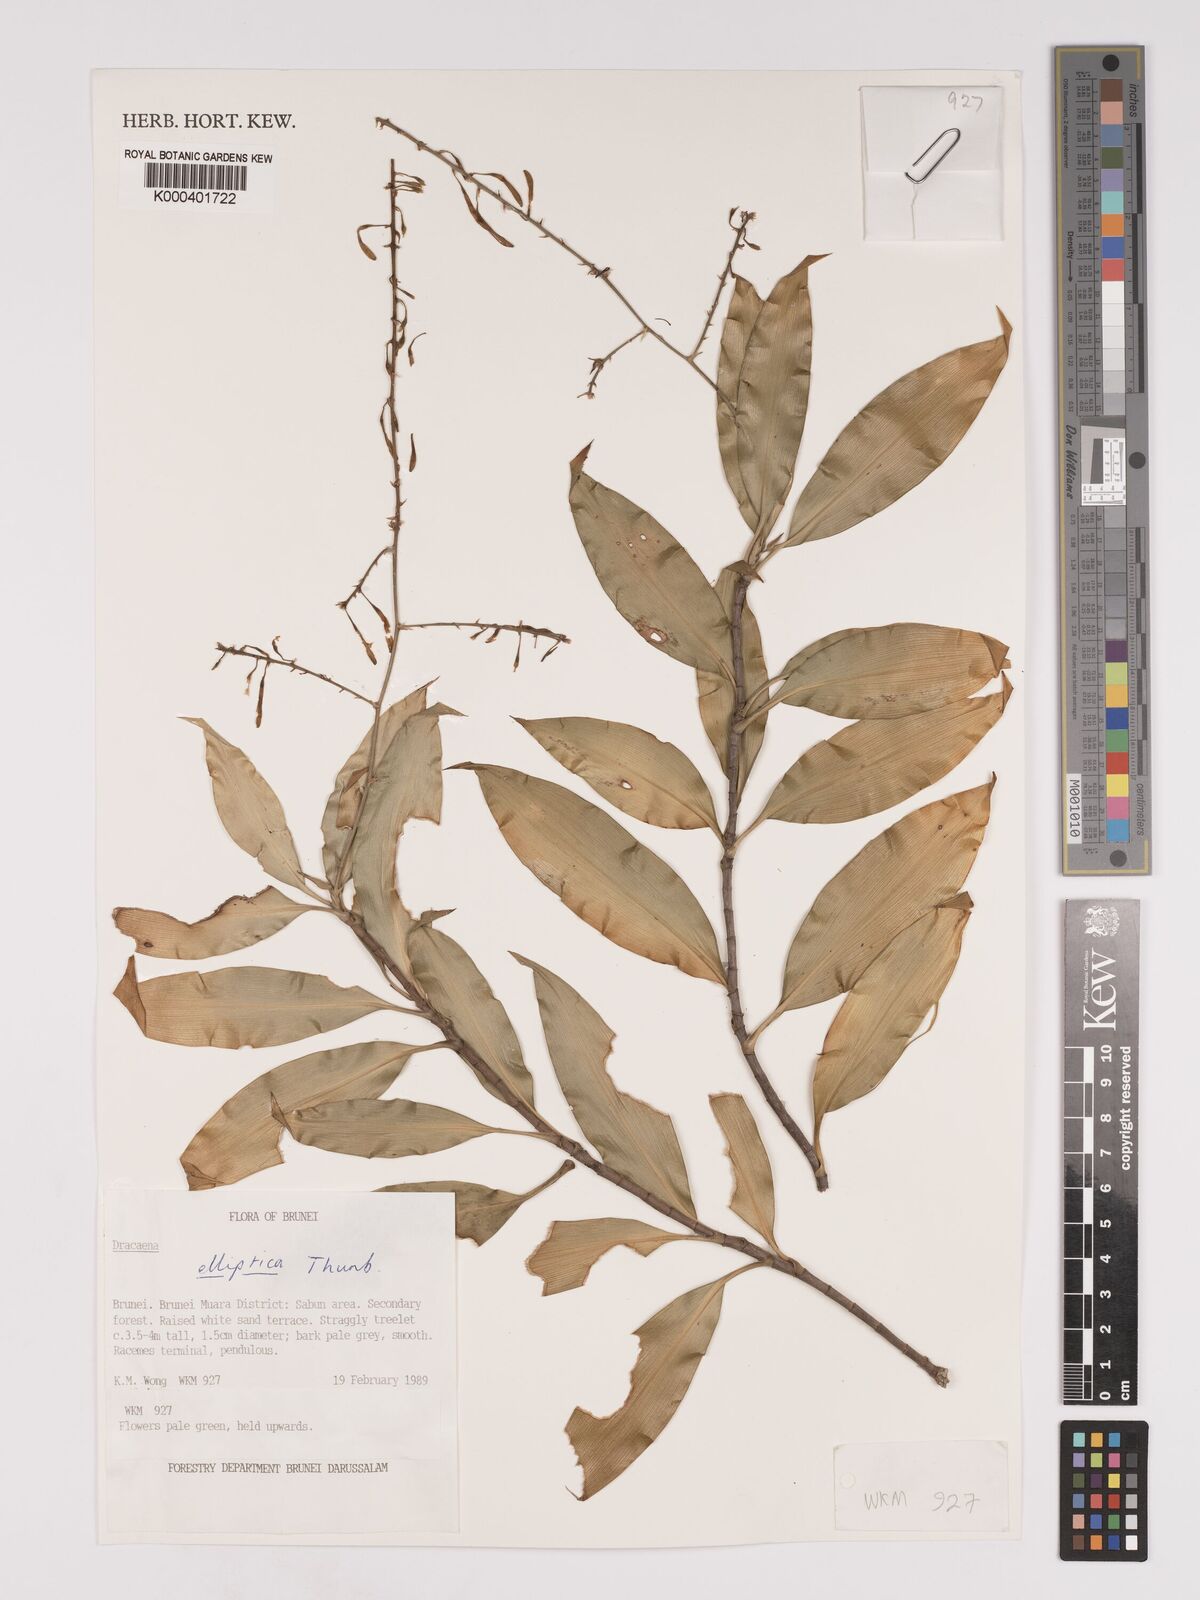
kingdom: Plantae
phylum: Tracheophyta
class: Liliopsida
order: Asparagales
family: Asparagaceae
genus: Dracaena
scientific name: Dracaena elliptica
